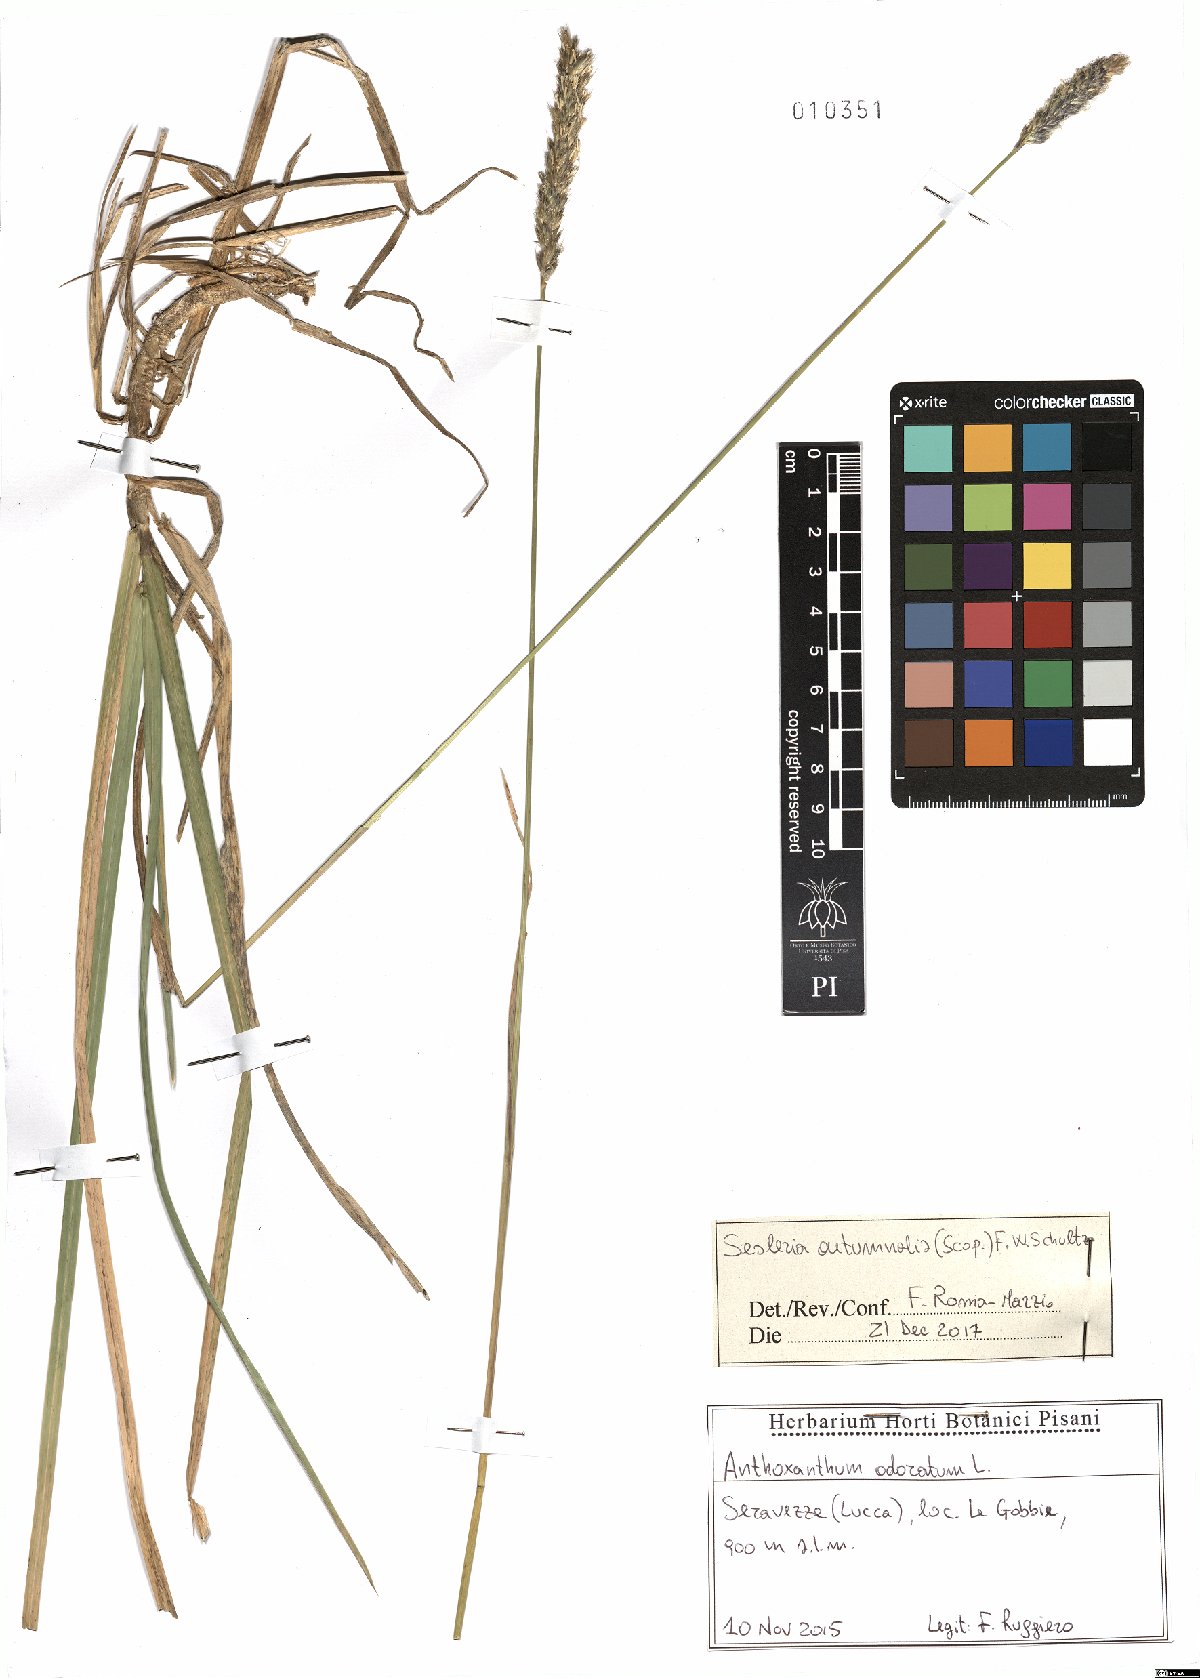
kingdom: Plantae
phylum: Tracheophyta
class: Liliopsida
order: Poales
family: Poaceae
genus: Sesleria
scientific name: Sesleria autumnalis
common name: Autumn moor grass
